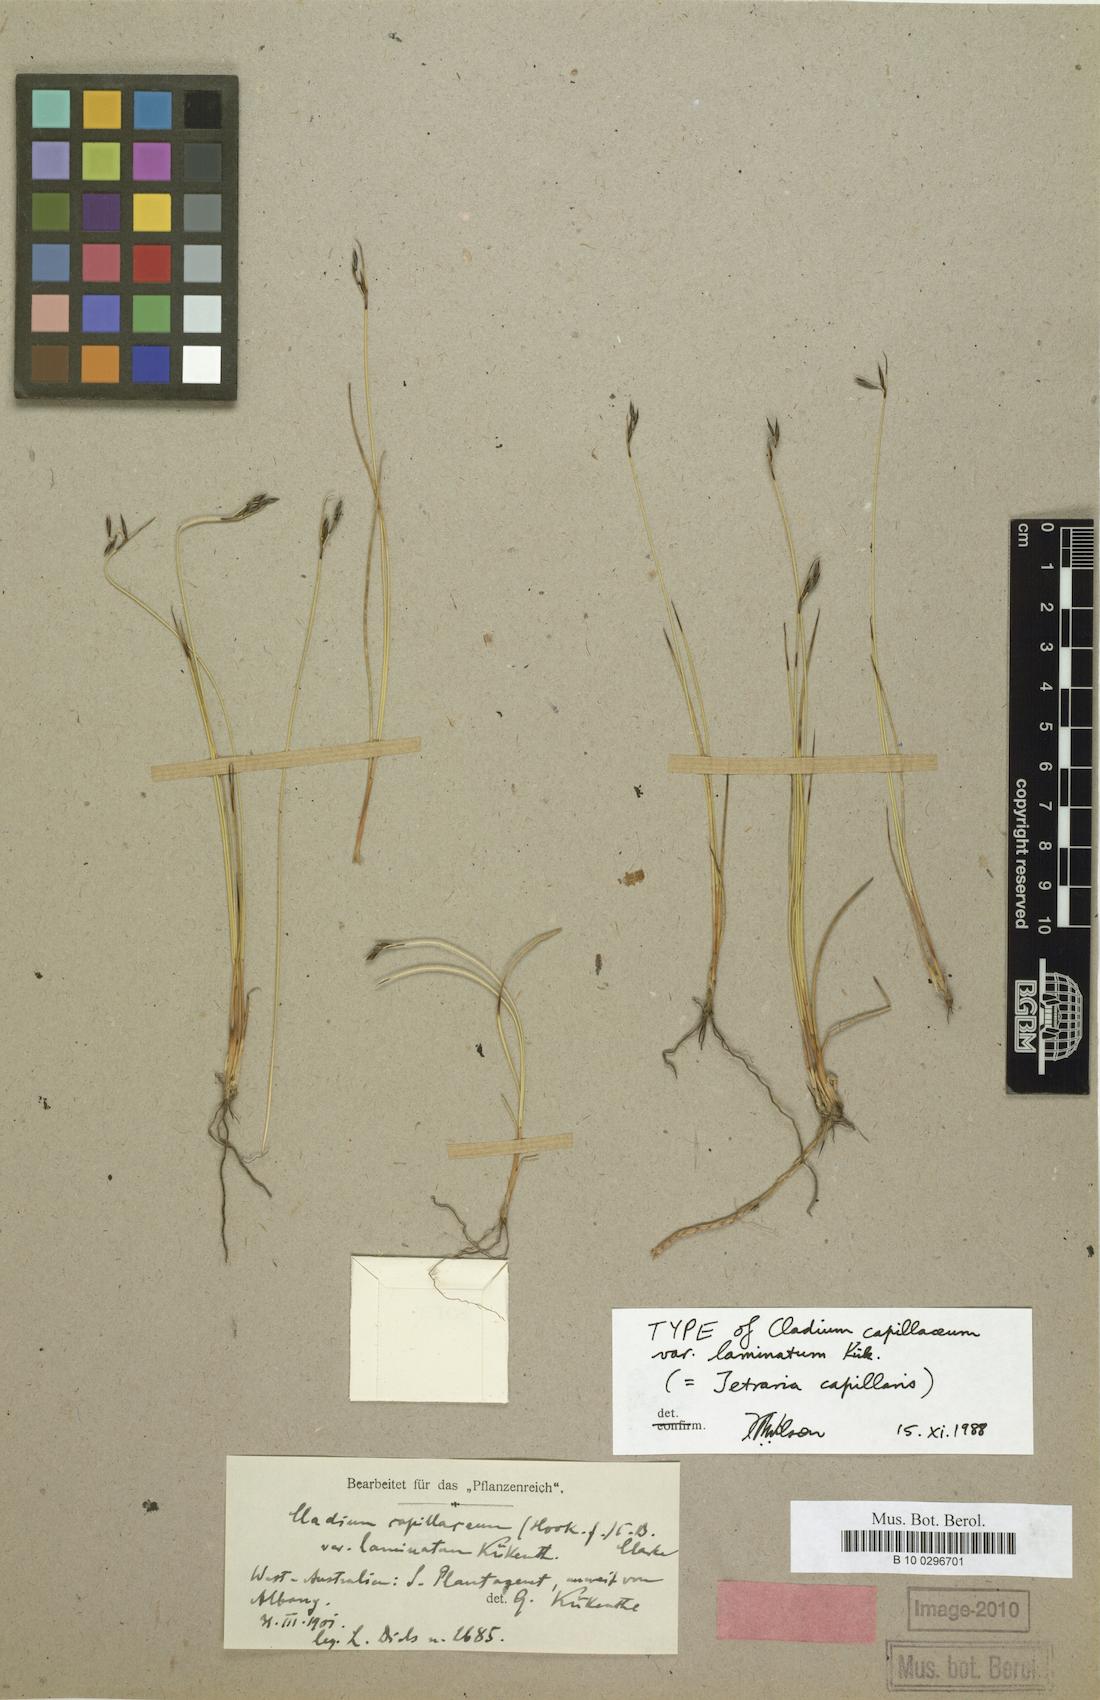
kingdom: Plantae
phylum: Tracheophyta
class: Liliopsida
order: Poales
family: Cyperaceae
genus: Tetraria
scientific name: Tetraria capillaris
